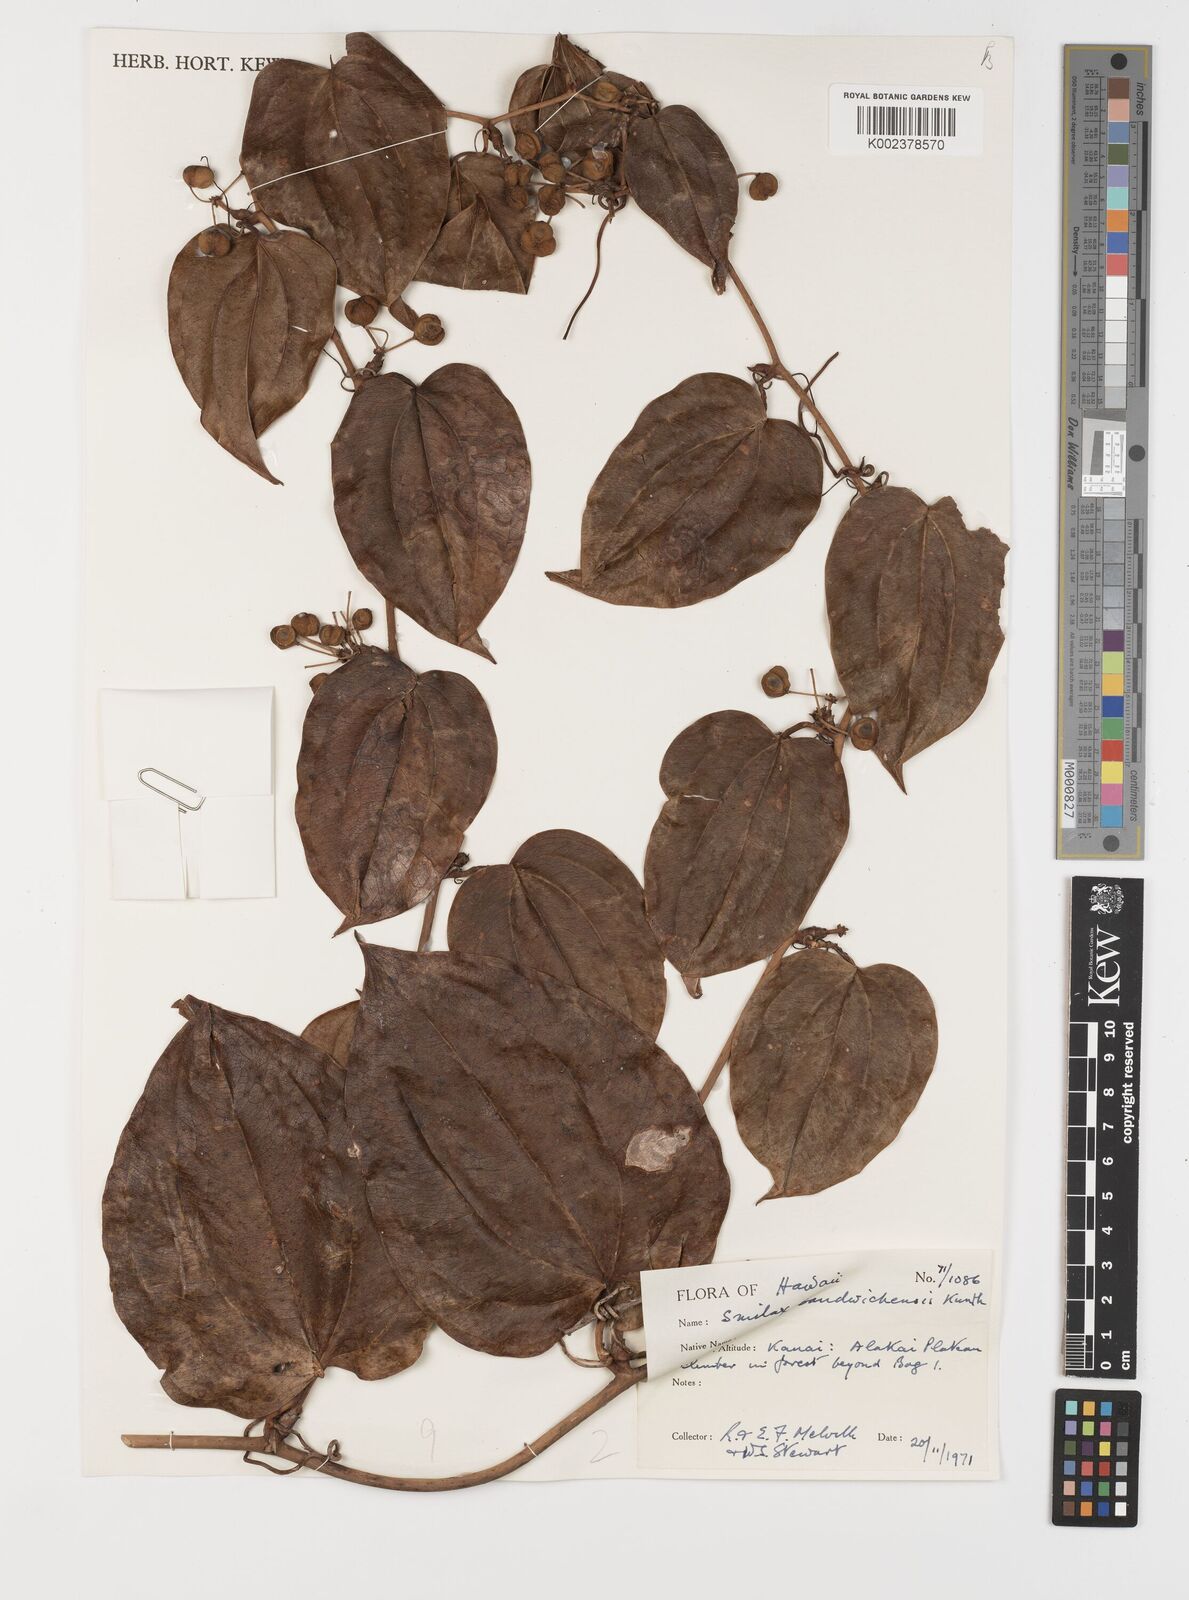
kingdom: Plantae
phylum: Tracheophyta
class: Liliopsida
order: Liliales
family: Smilacaceae
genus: Smilax
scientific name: Smilax melastomifolia
